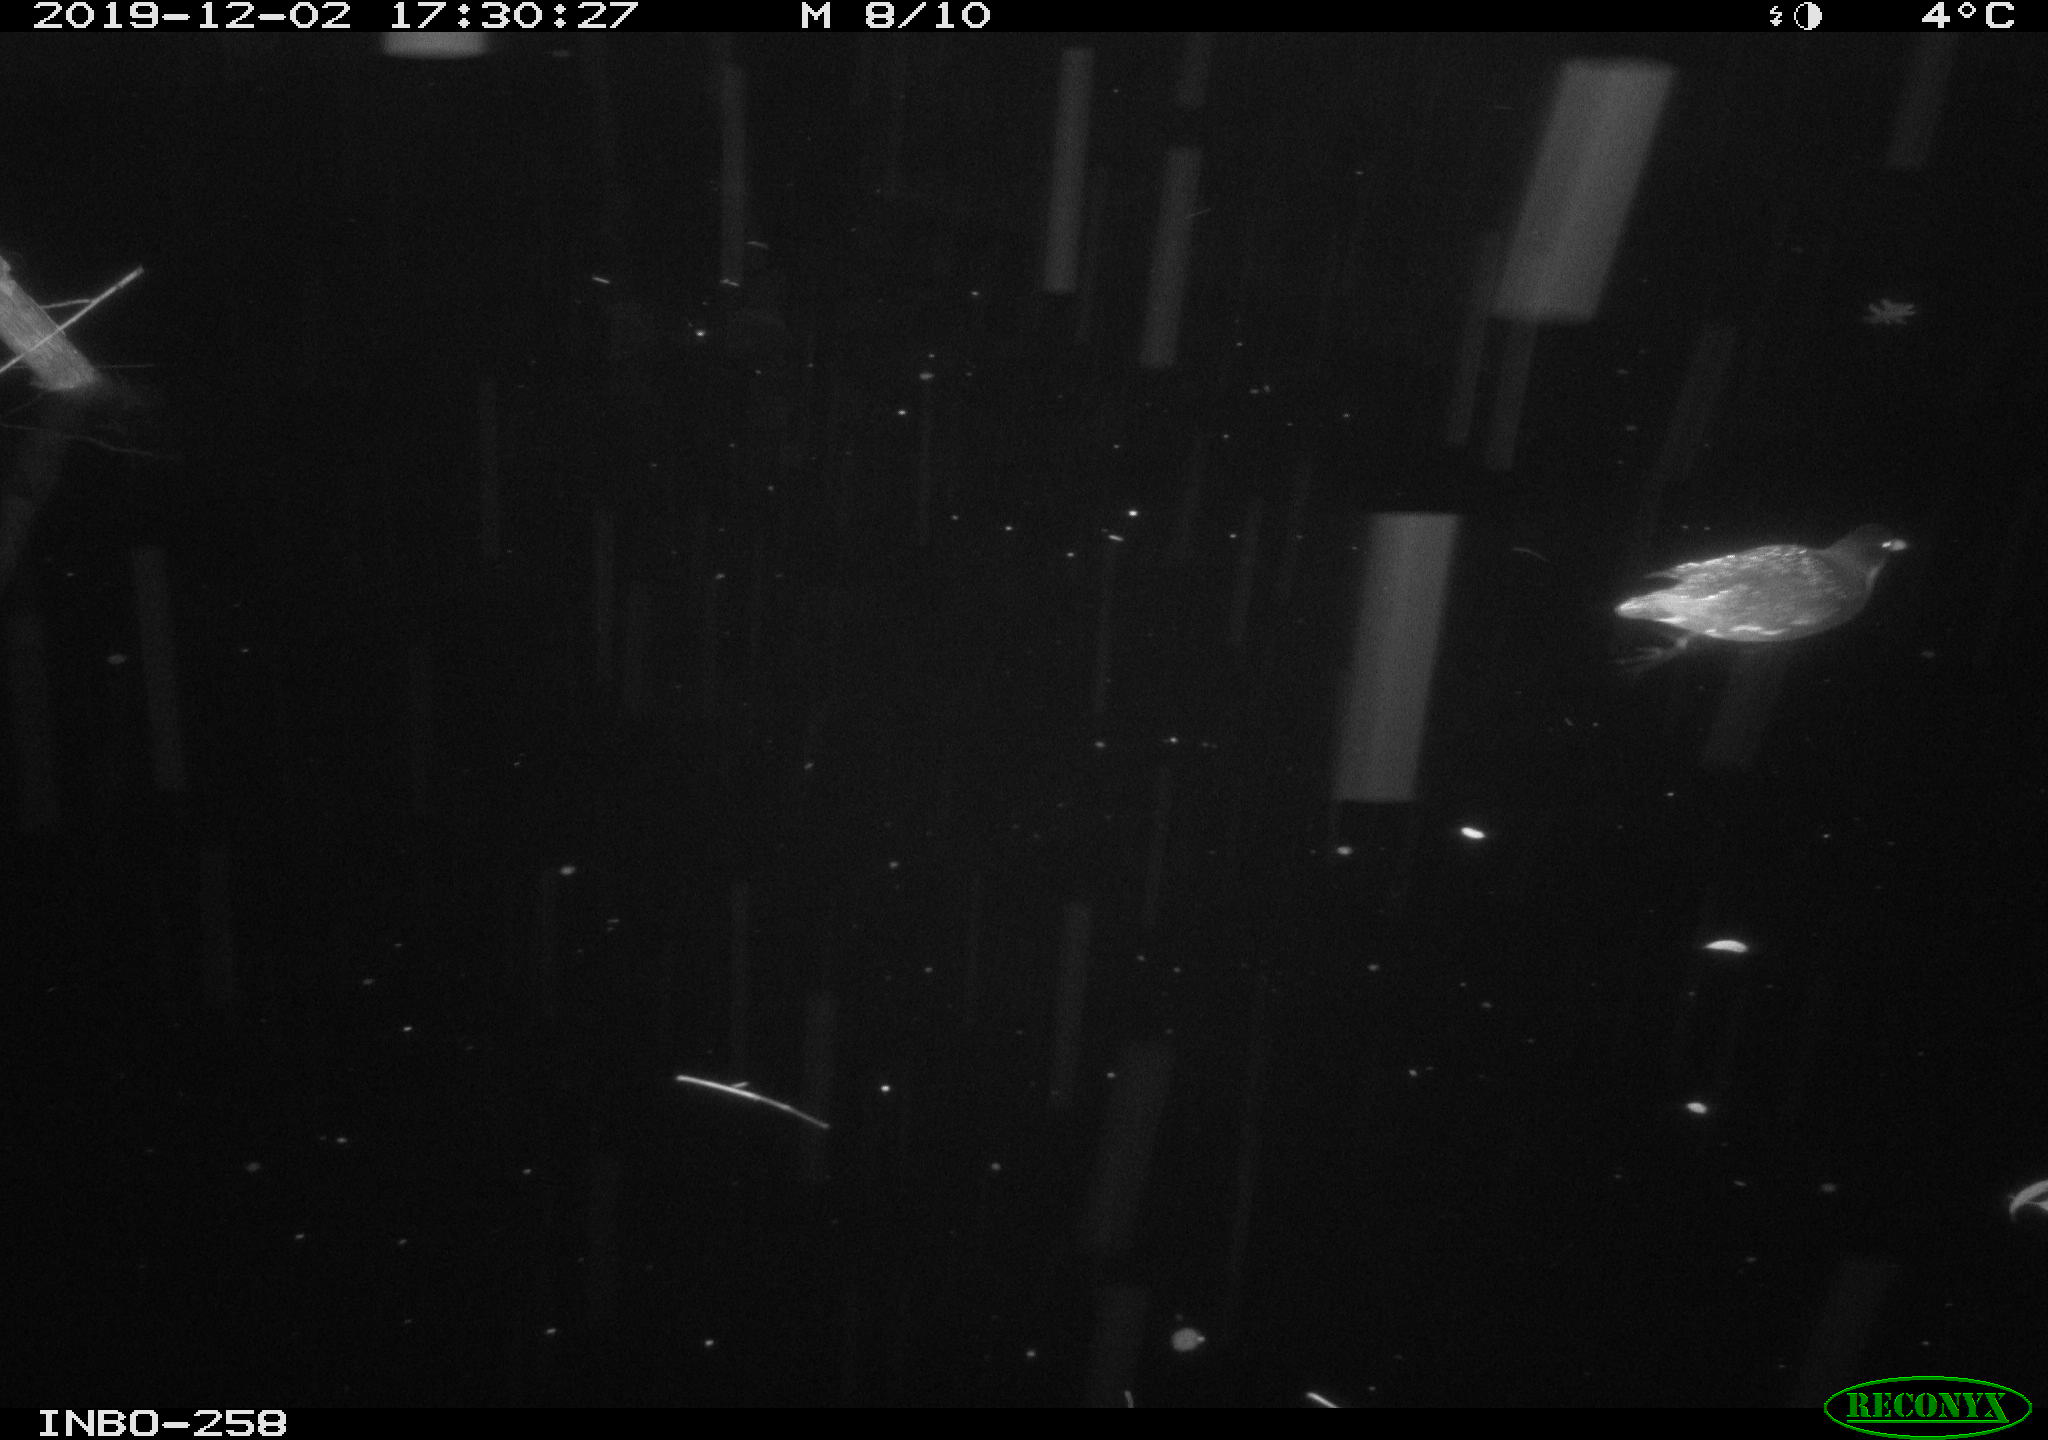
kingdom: Animalia
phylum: Chordata
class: Aves
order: Gruiformes
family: Rallidae
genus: Gallinula
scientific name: Gallinula chloropus
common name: Common moorhen
